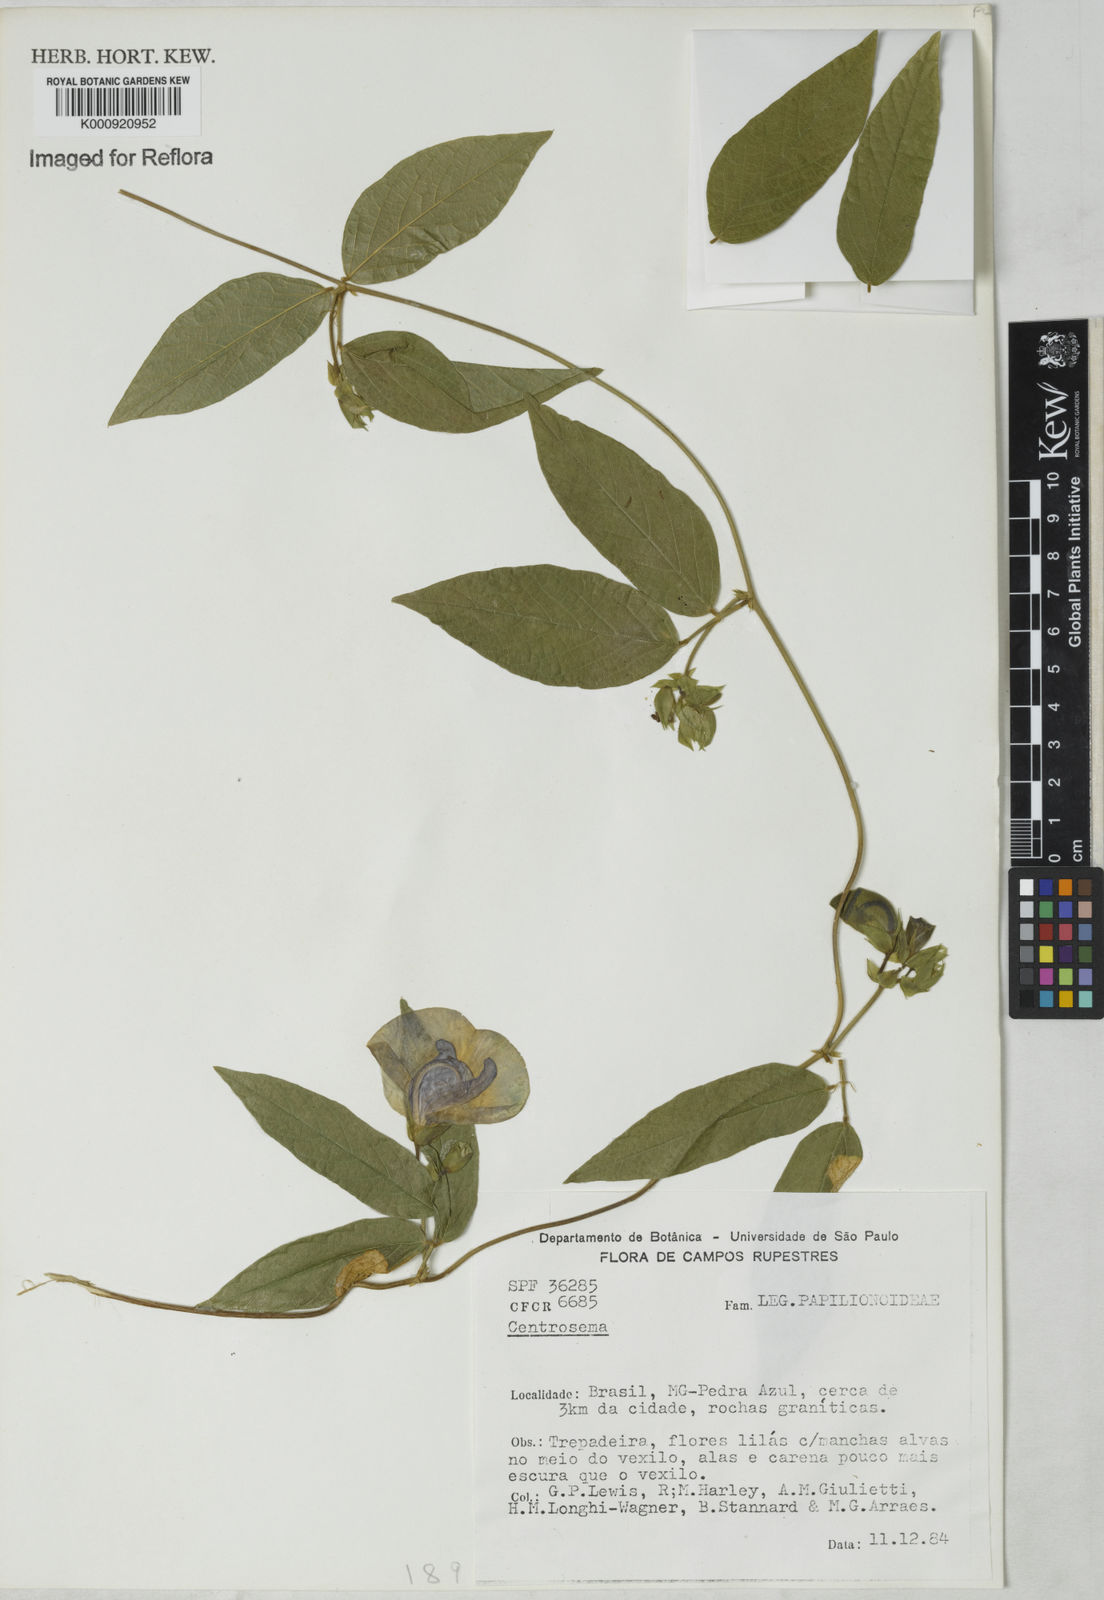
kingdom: Plantae
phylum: Tracheophyta
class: Magnoliopsida
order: Fabales
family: Fabaceae
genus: Centrosema
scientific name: Centrosema
